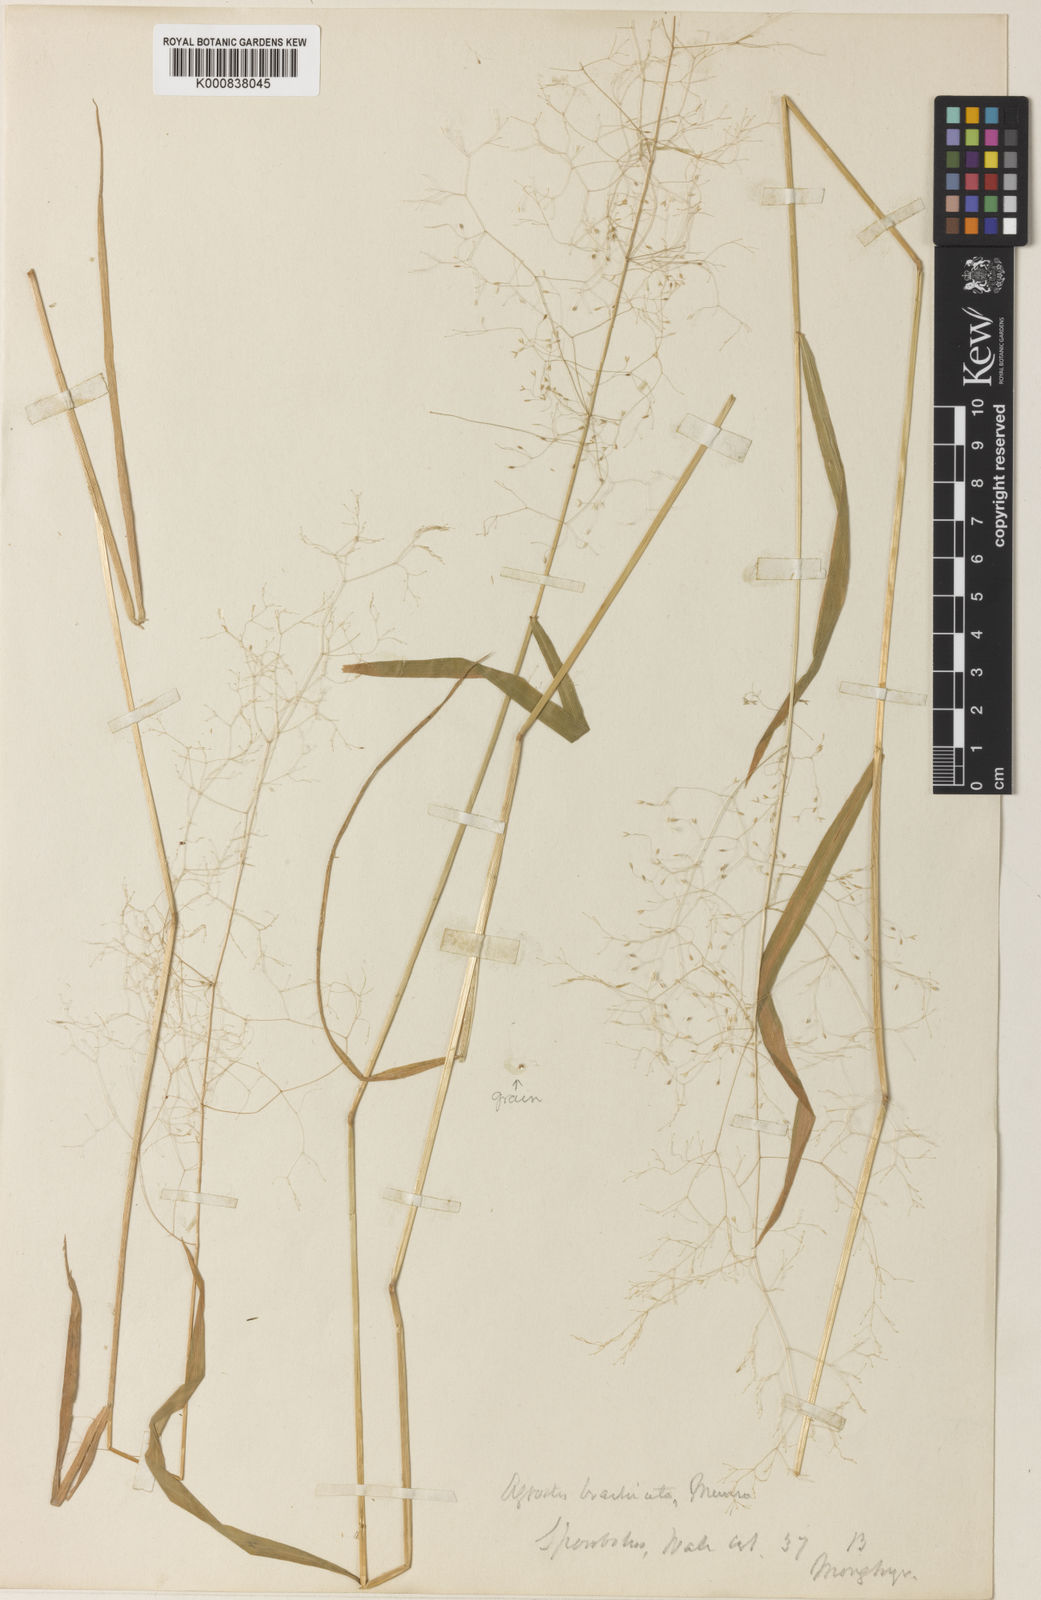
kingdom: Plantae
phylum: Tracheophyta
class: Liliopsida
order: Poales
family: Poaceae
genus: Agrostis
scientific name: Agrostis brachiata
